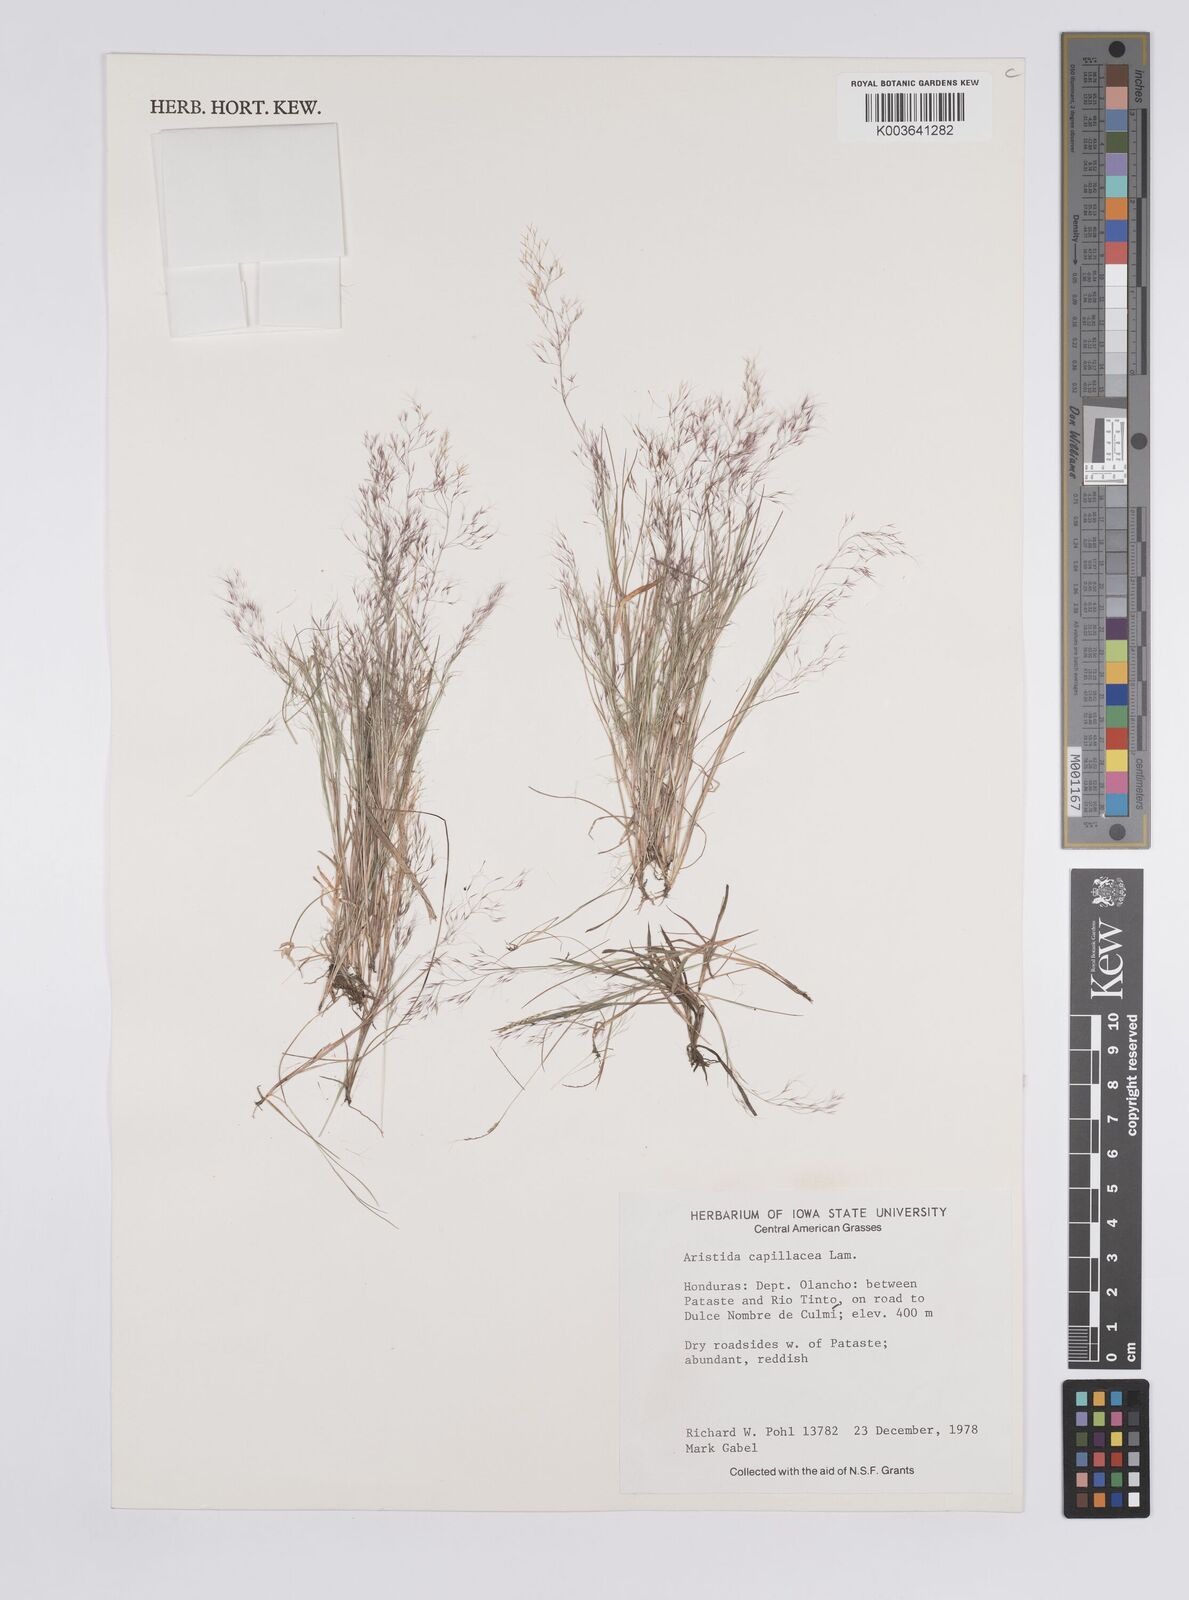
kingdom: Plantae
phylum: Tracheophyta
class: Liliopsida
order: Poales
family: Poaceae
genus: Aristida
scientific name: Aristida capillacea
